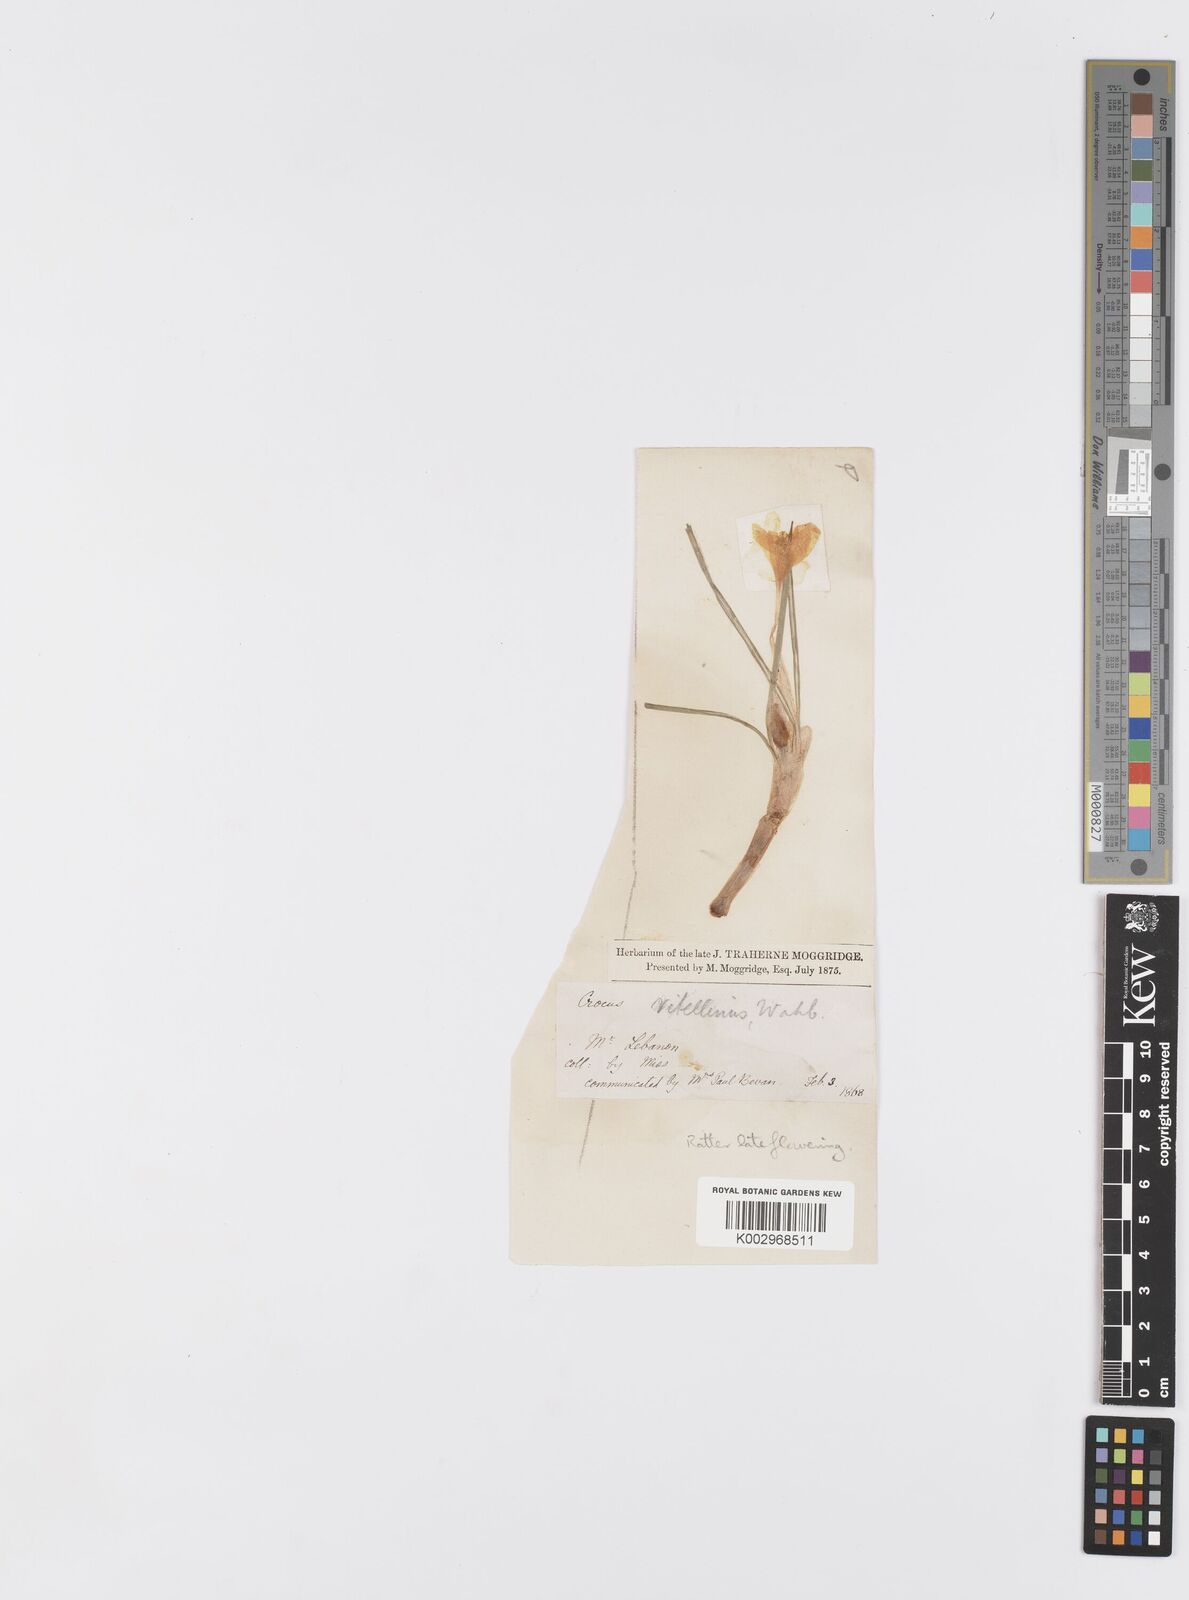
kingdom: Plantae
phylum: Tracheophyta
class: Liliopsida
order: Asparagales
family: Iridaceae
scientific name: Iridaceae
